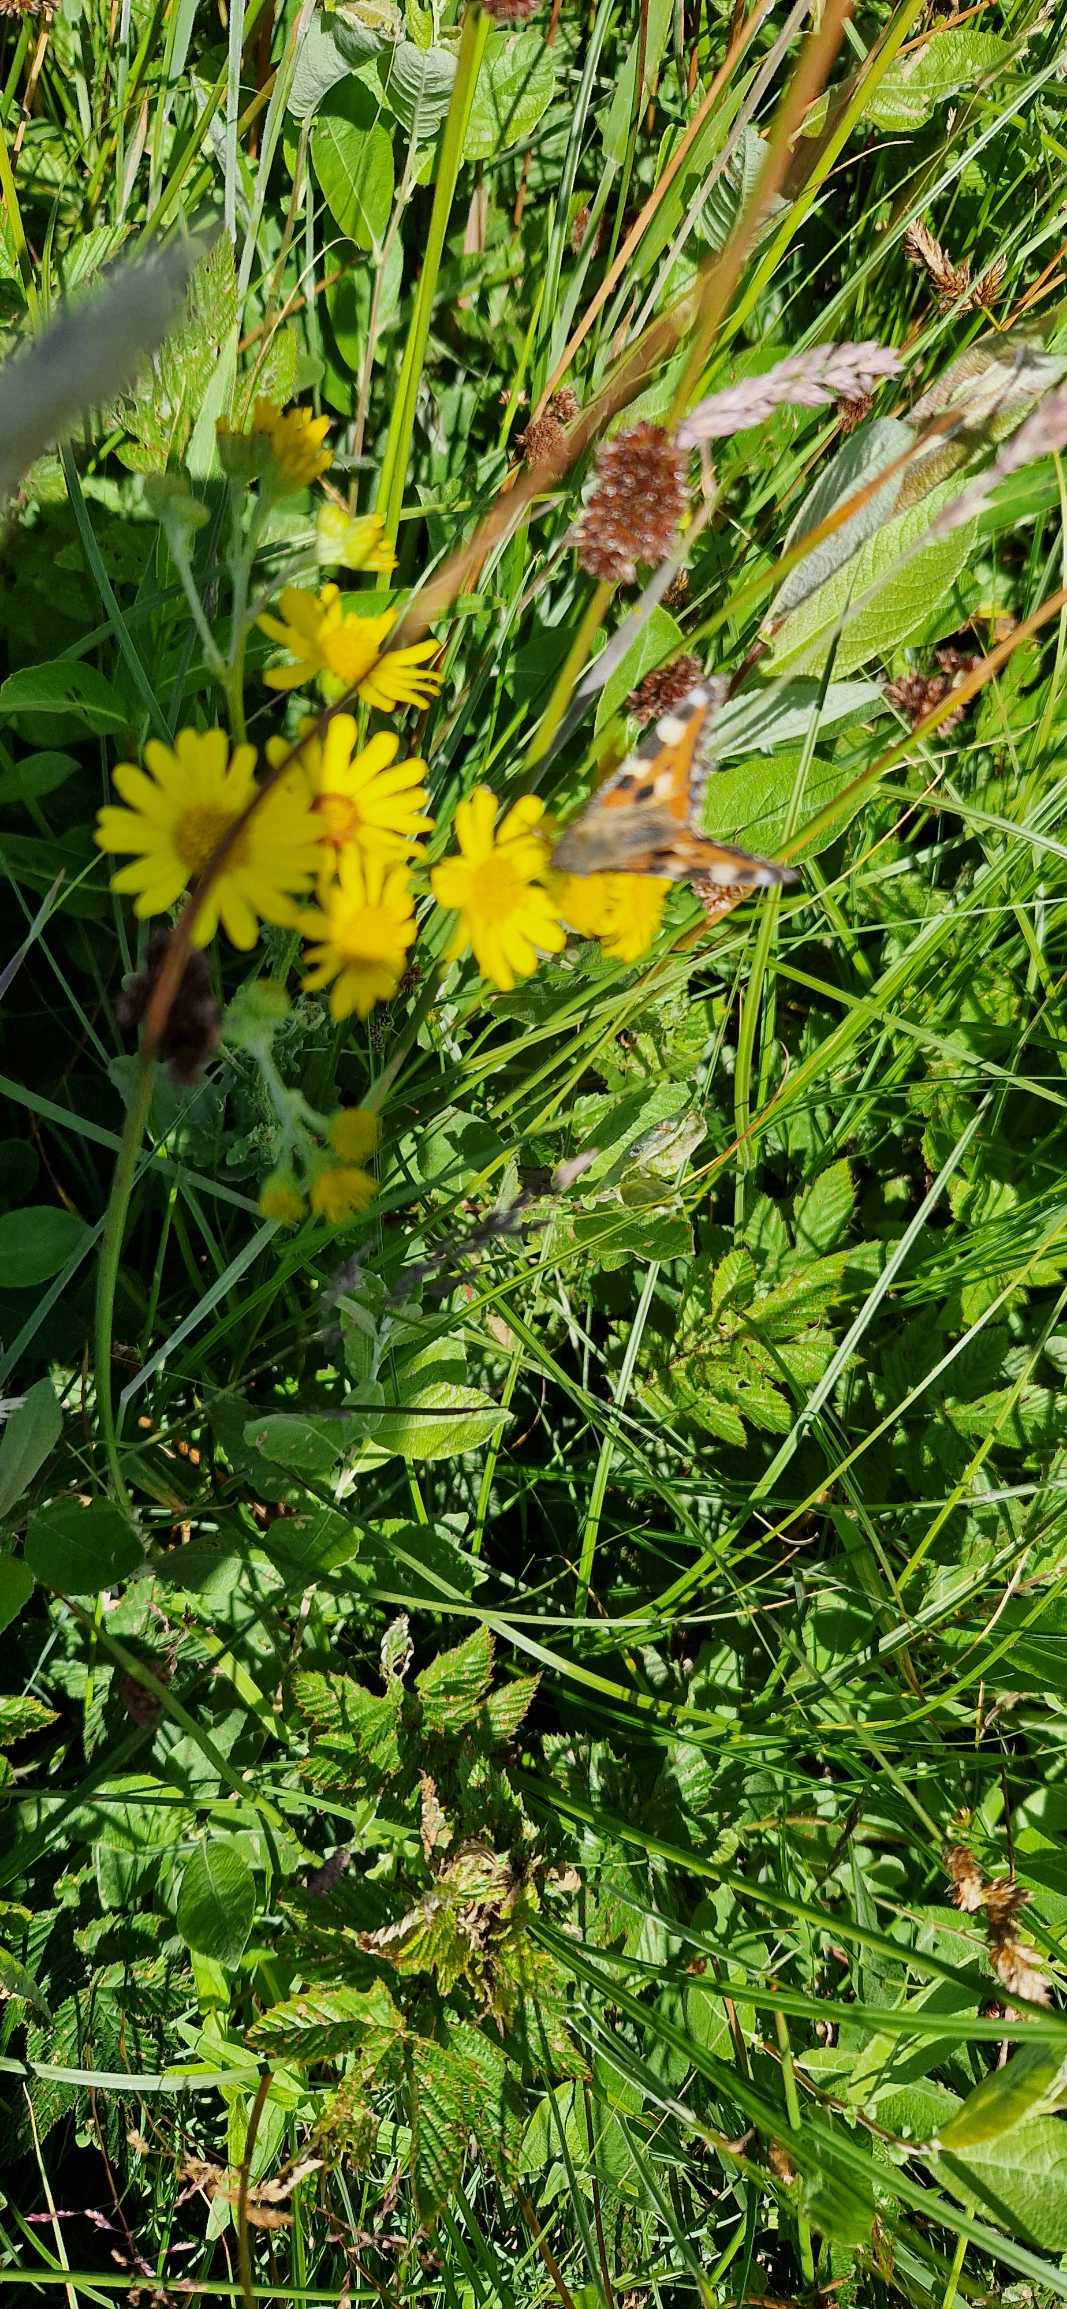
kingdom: Animalia
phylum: Arthropoda
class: Insecta
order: Lepidoptera
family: Nymphalidae
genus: Aglais
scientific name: Aglais urticae
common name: Nældens takvinge
